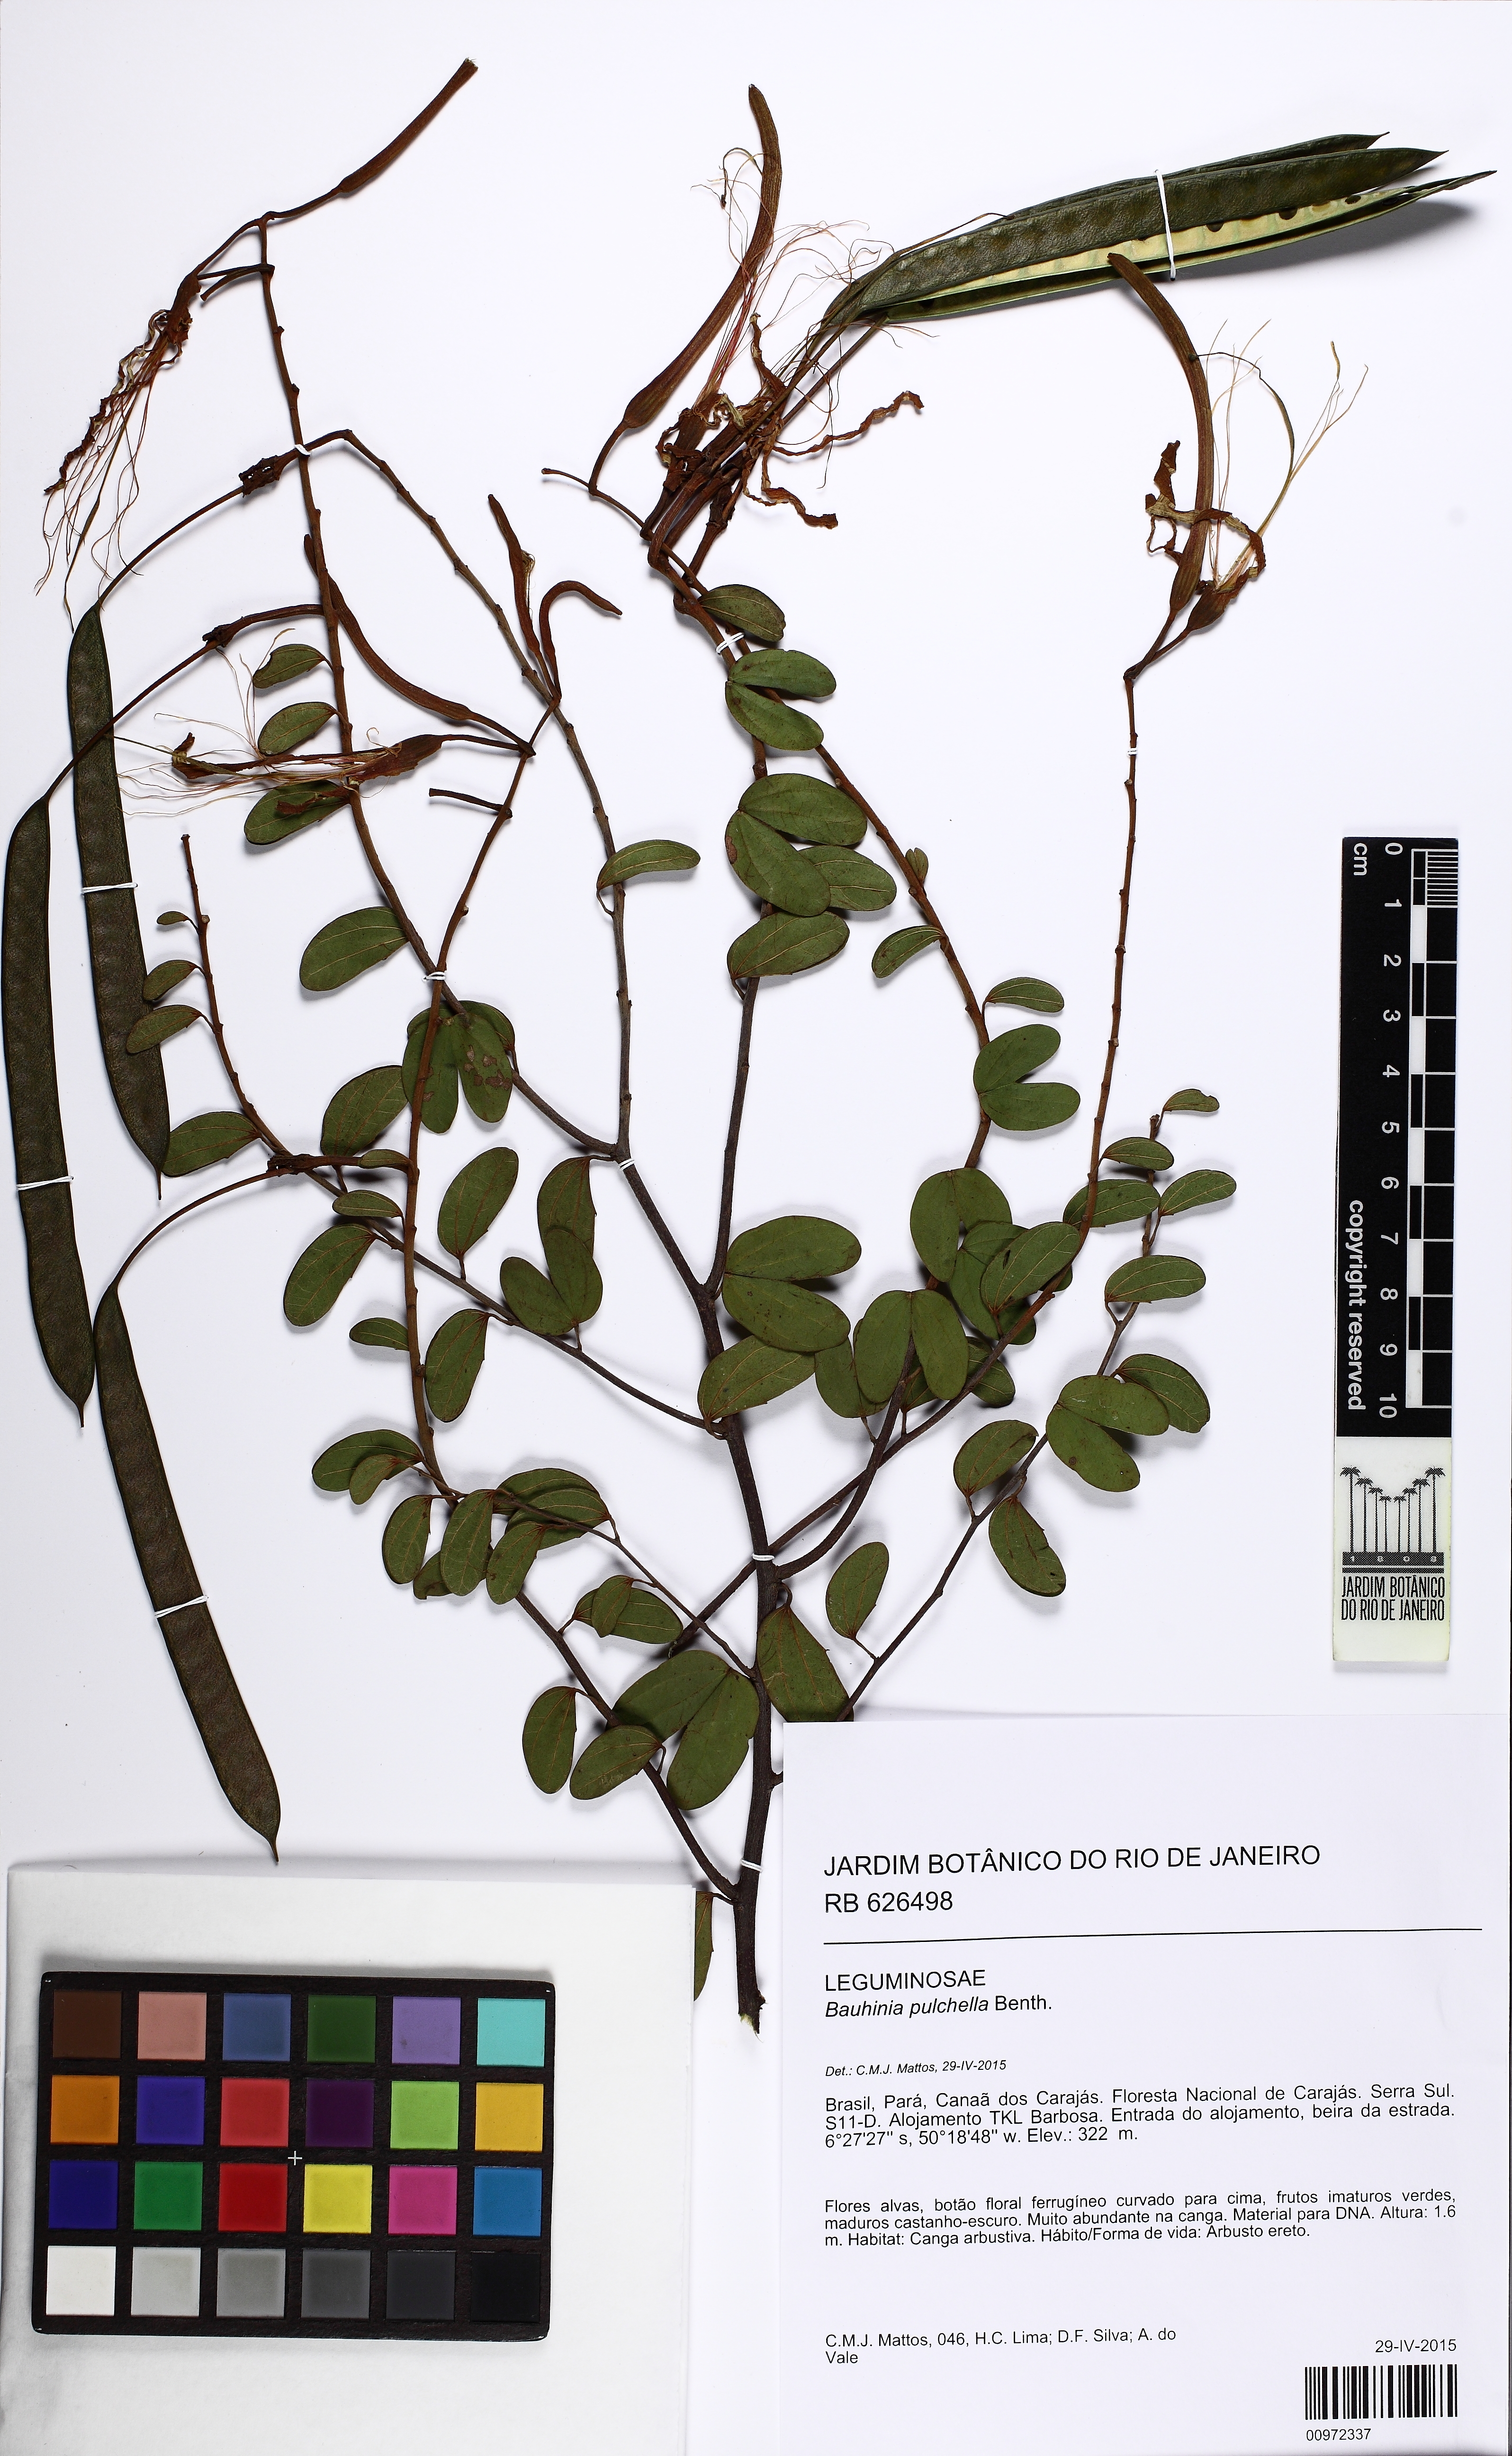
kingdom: Plantae
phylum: Tracheophyta
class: Magnoliopsida
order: Fabales
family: Fabaceae
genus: Bauhinia
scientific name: Bauhinia pulchella
